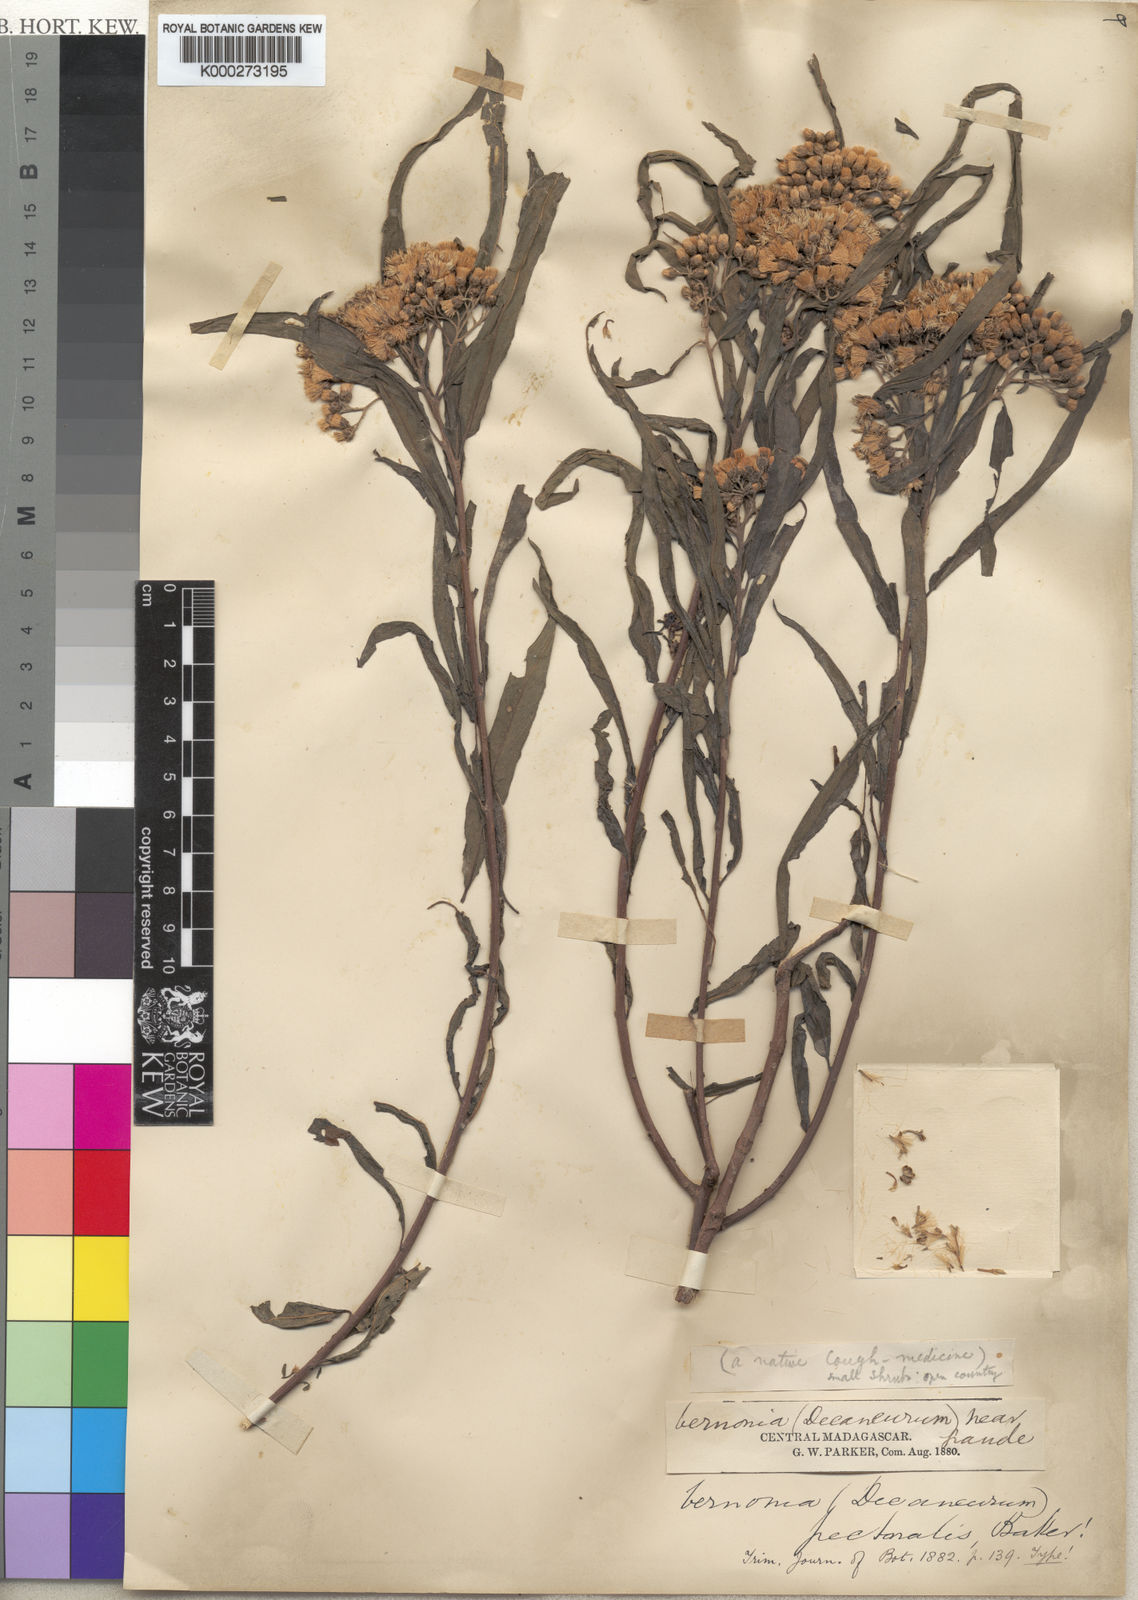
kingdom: Plantae
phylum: Tracheophyta
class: Magnoliopsida
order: Asterales
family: Asteraceae
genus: Gymnanthemum
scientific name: Gymnanthemum pectorale
